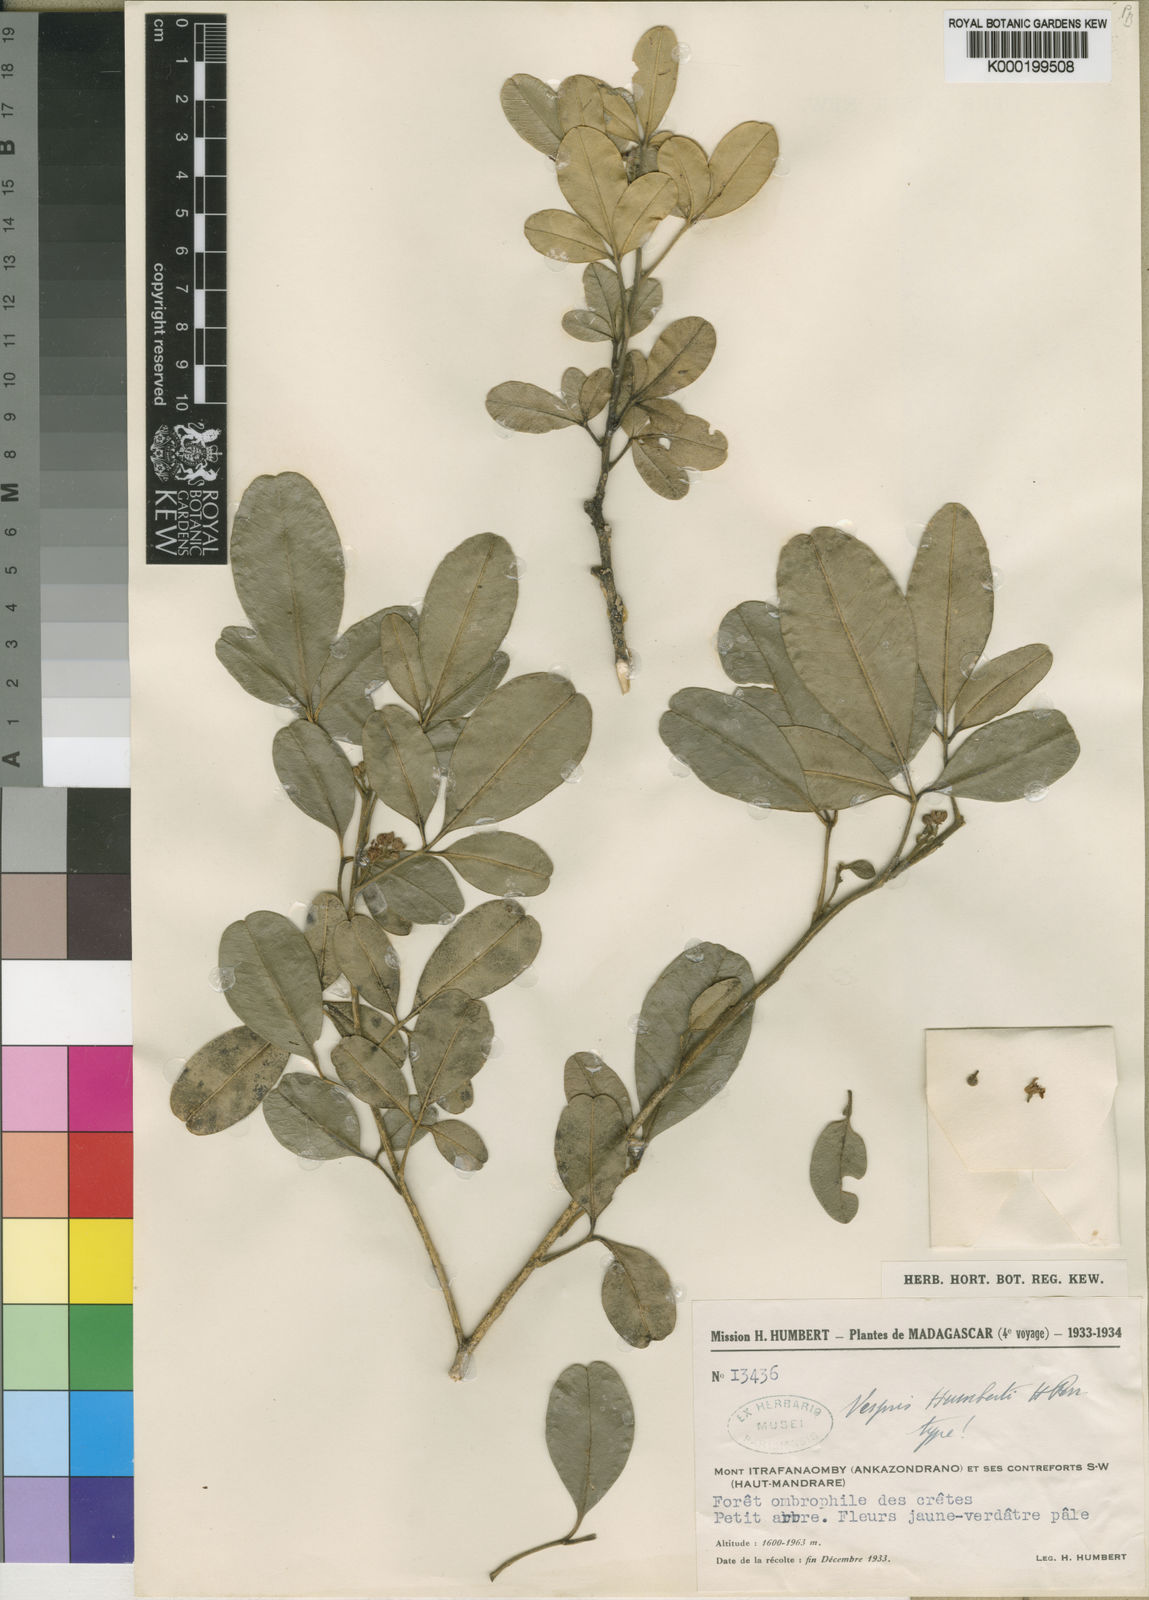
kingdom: Plantae
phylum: Tracheophyta
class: Magnoliopsida
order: Sapindales
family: Rutaceae
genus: Vepris
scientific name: Vepris humbertii
